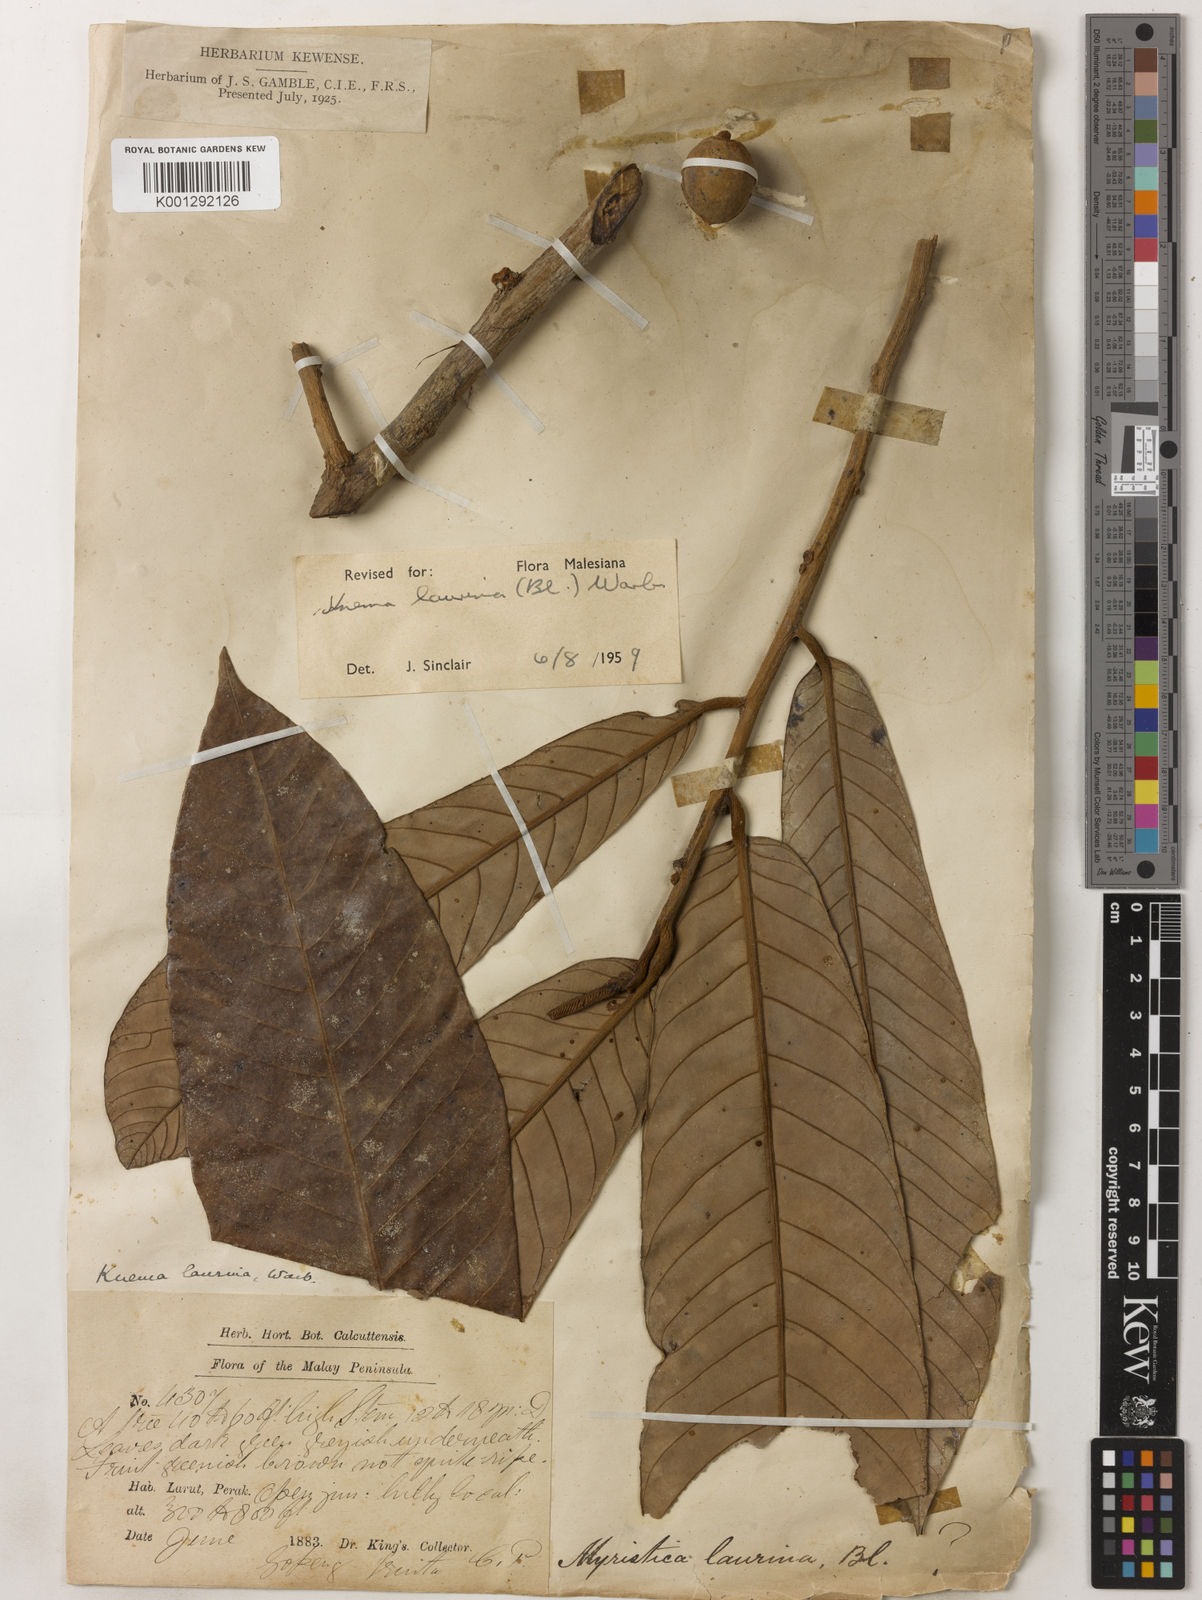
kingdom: Plantae
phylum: Tracheophyta
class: Magnoliopsida
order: Magnoliales
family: Myristicaceae
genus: Knema
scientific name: Knema laurina
